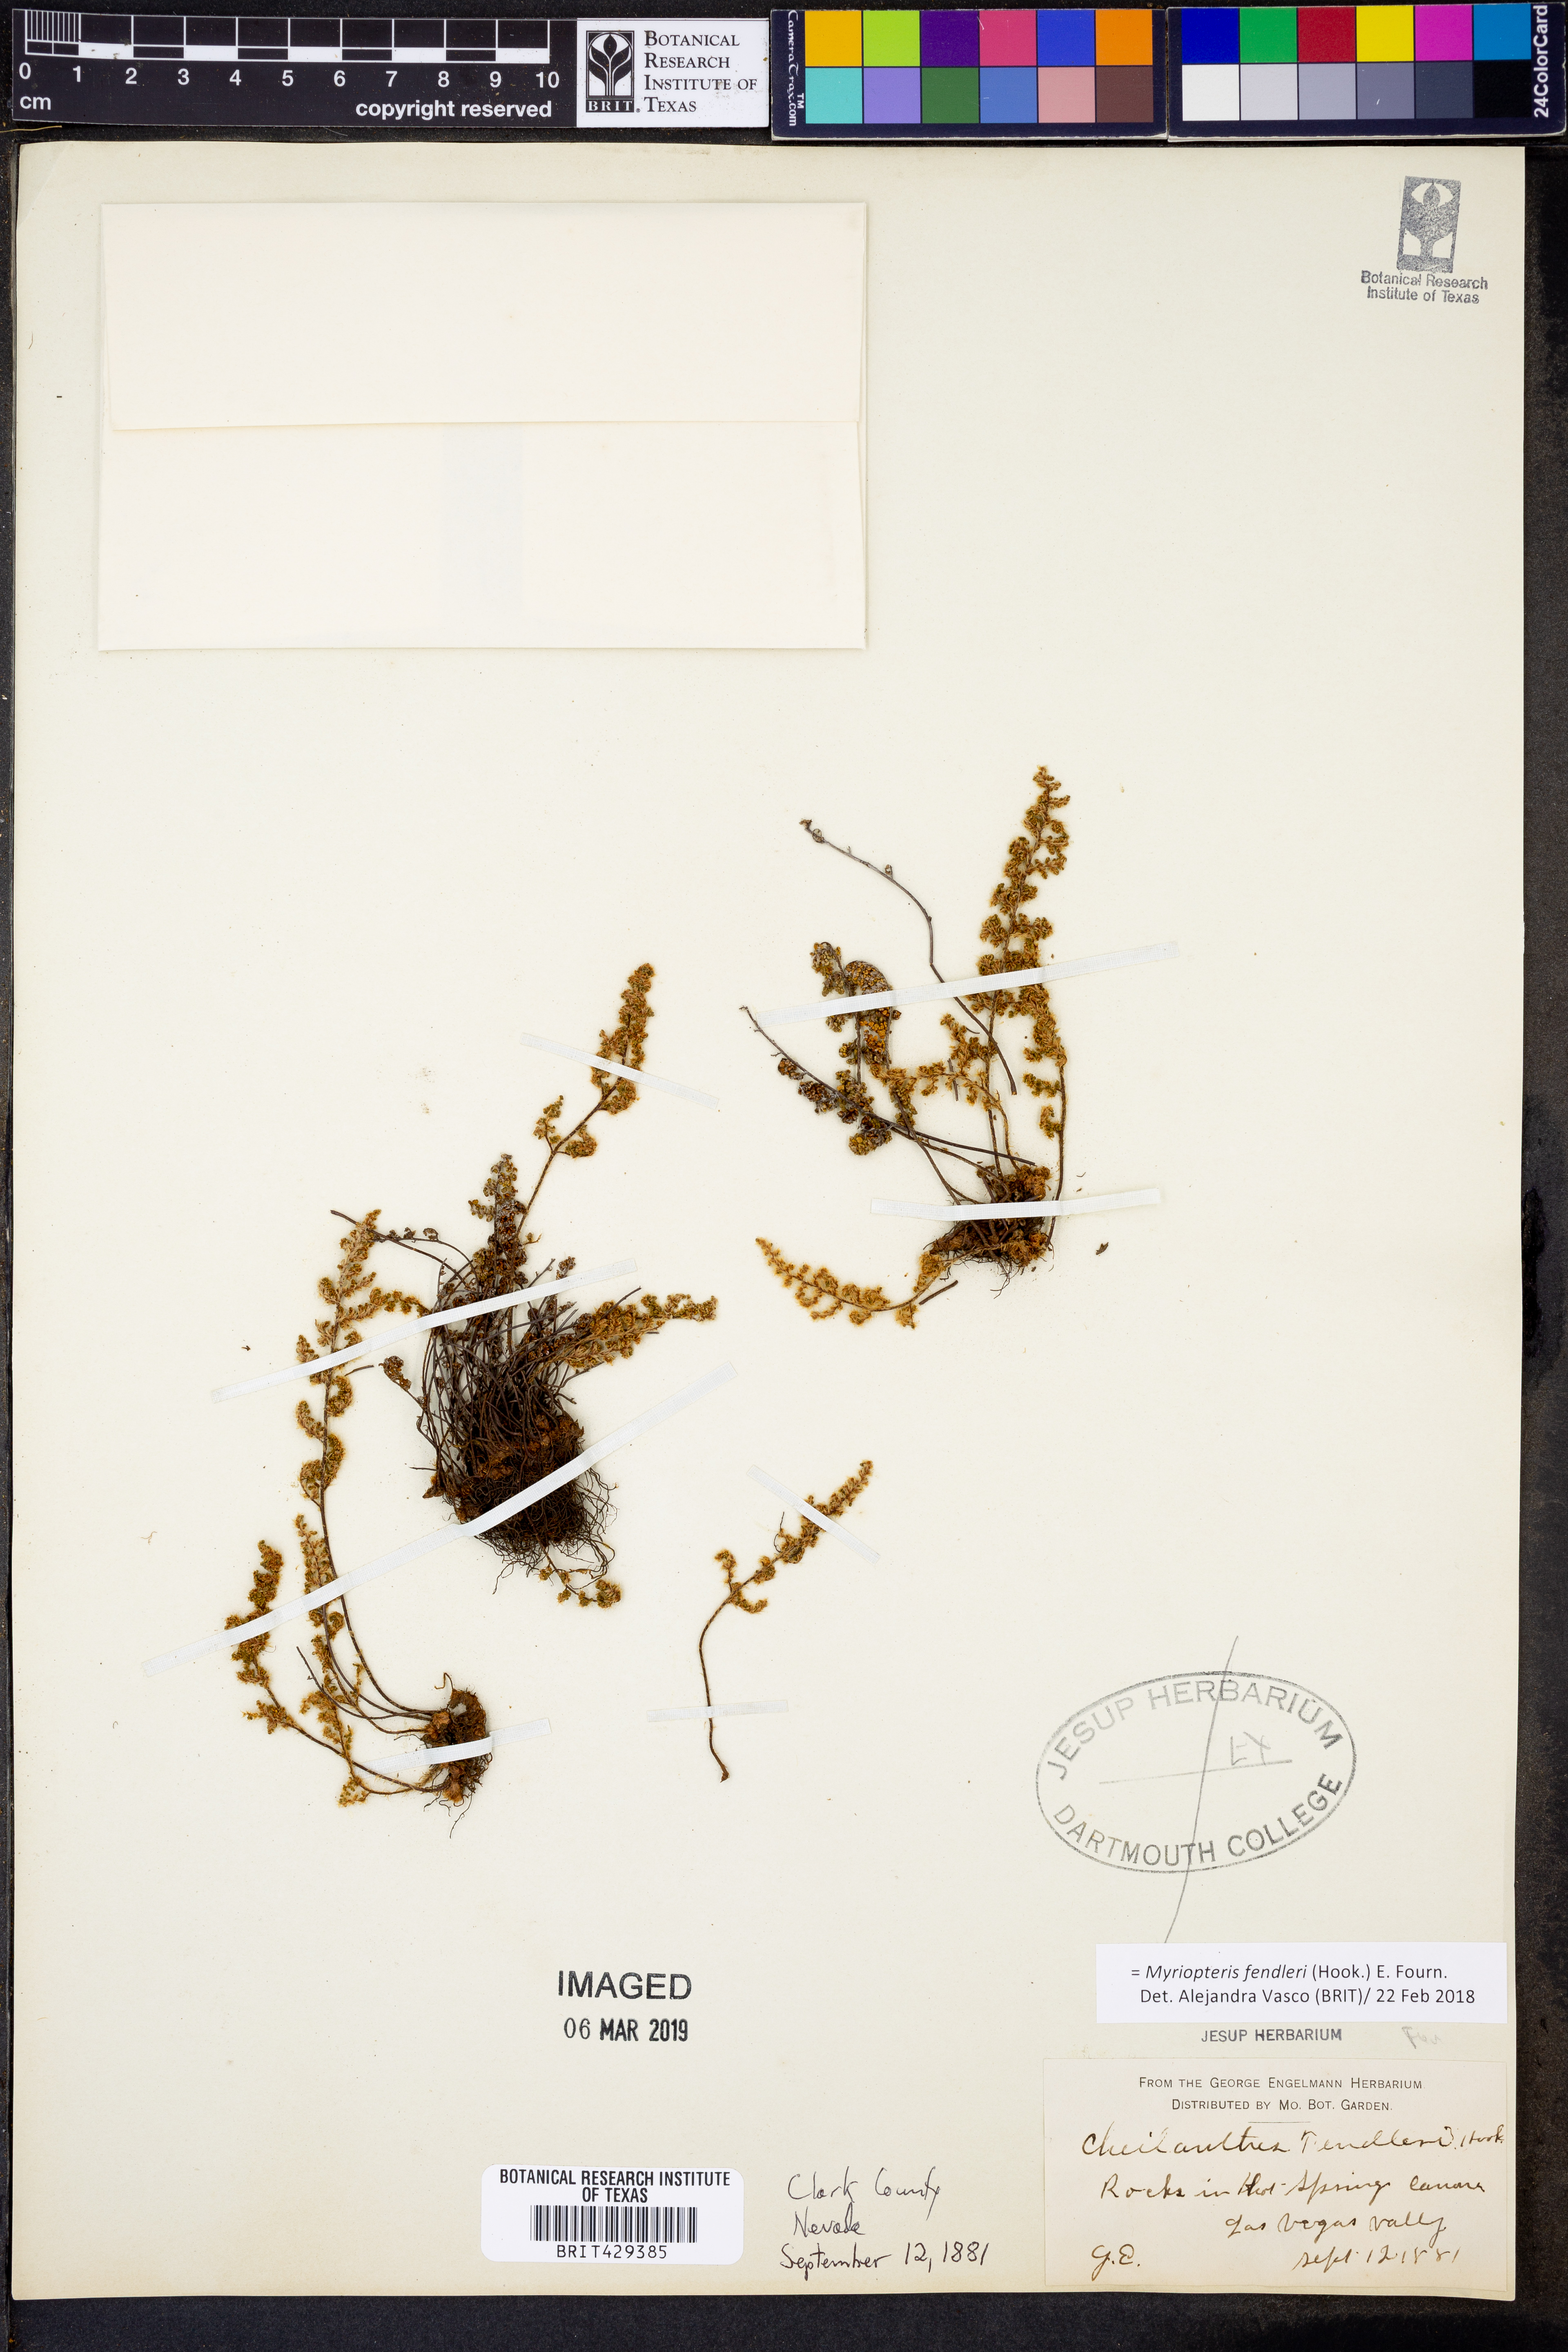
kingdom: Plantae
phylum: Tracheophyta
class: Polypodiopsida
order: Polypodiales
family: Pteridaceae
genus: Myriopteris
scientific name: Myriopteris fendleri
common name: Fendler's lip fern
